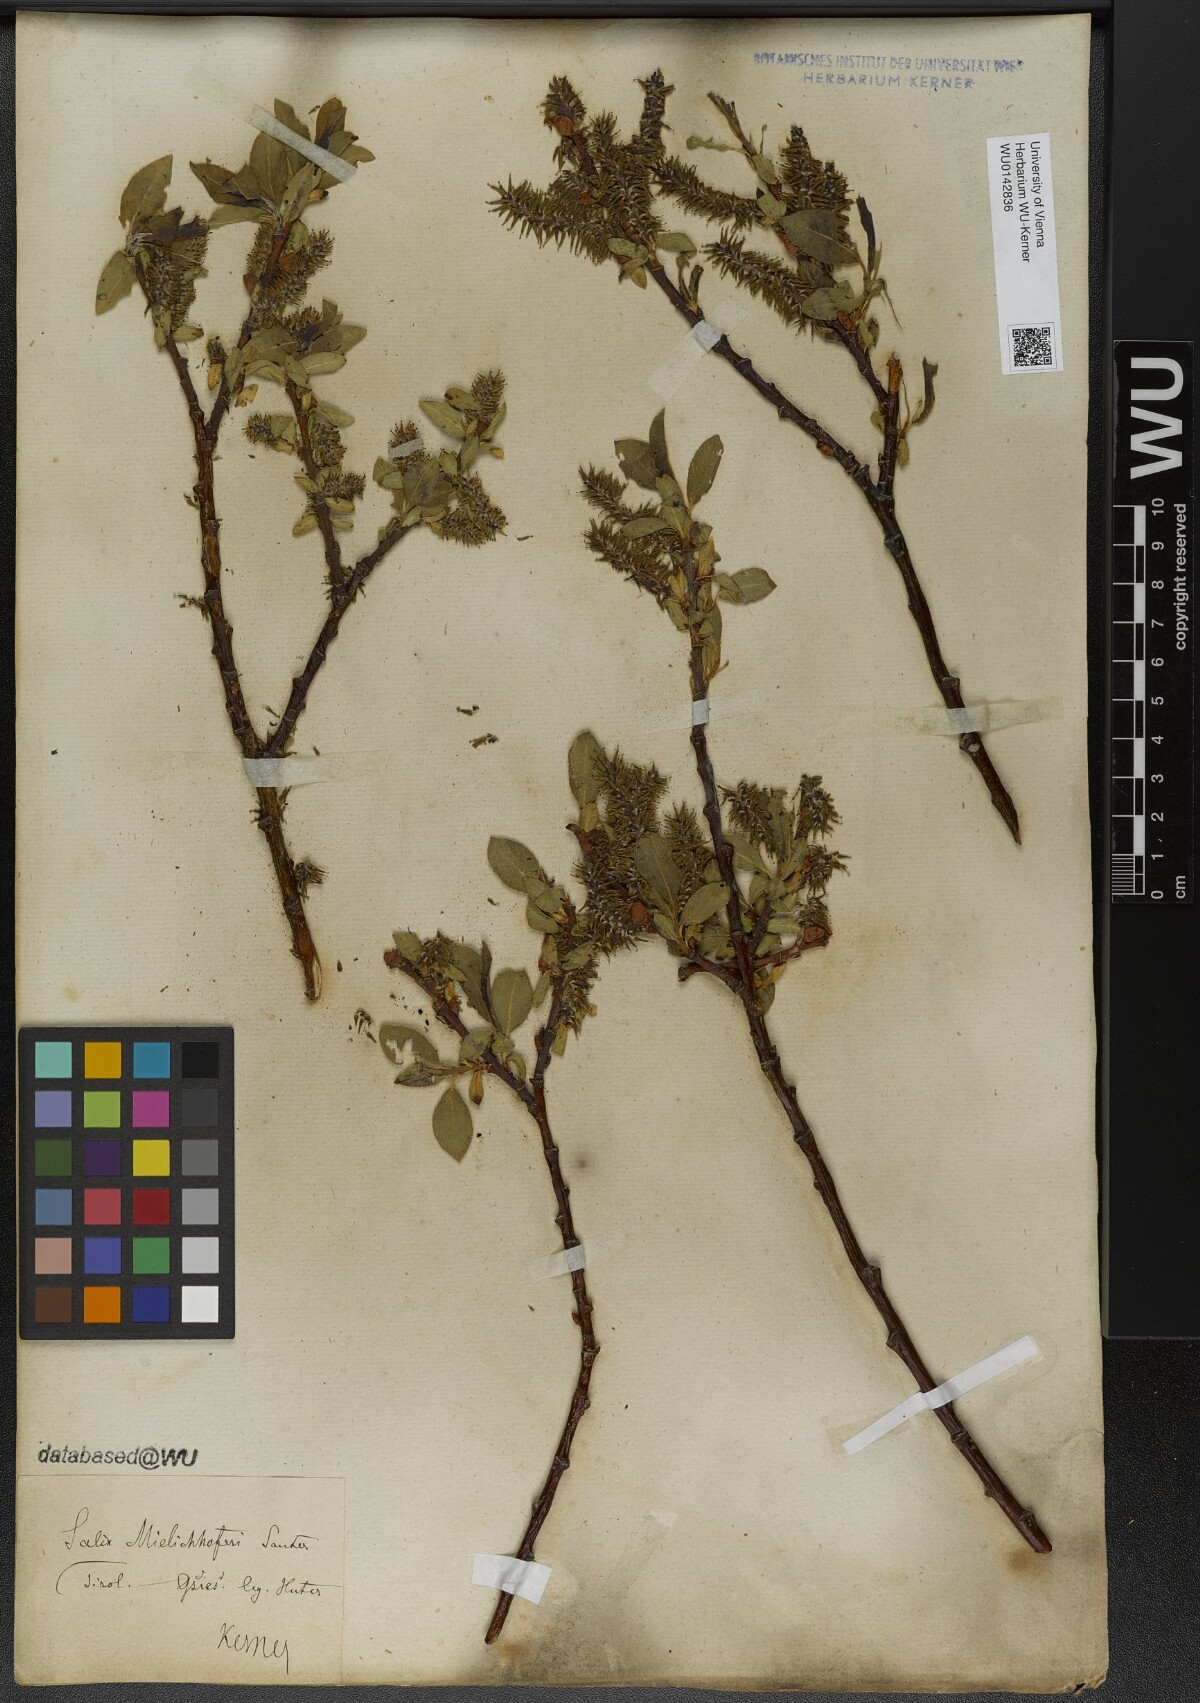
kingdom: Plantae
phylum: Tracheophyta
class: Magnoliopsida
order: Malpighiales
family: Salicaceae
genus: Salix
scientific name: Salix mielichhoferi
